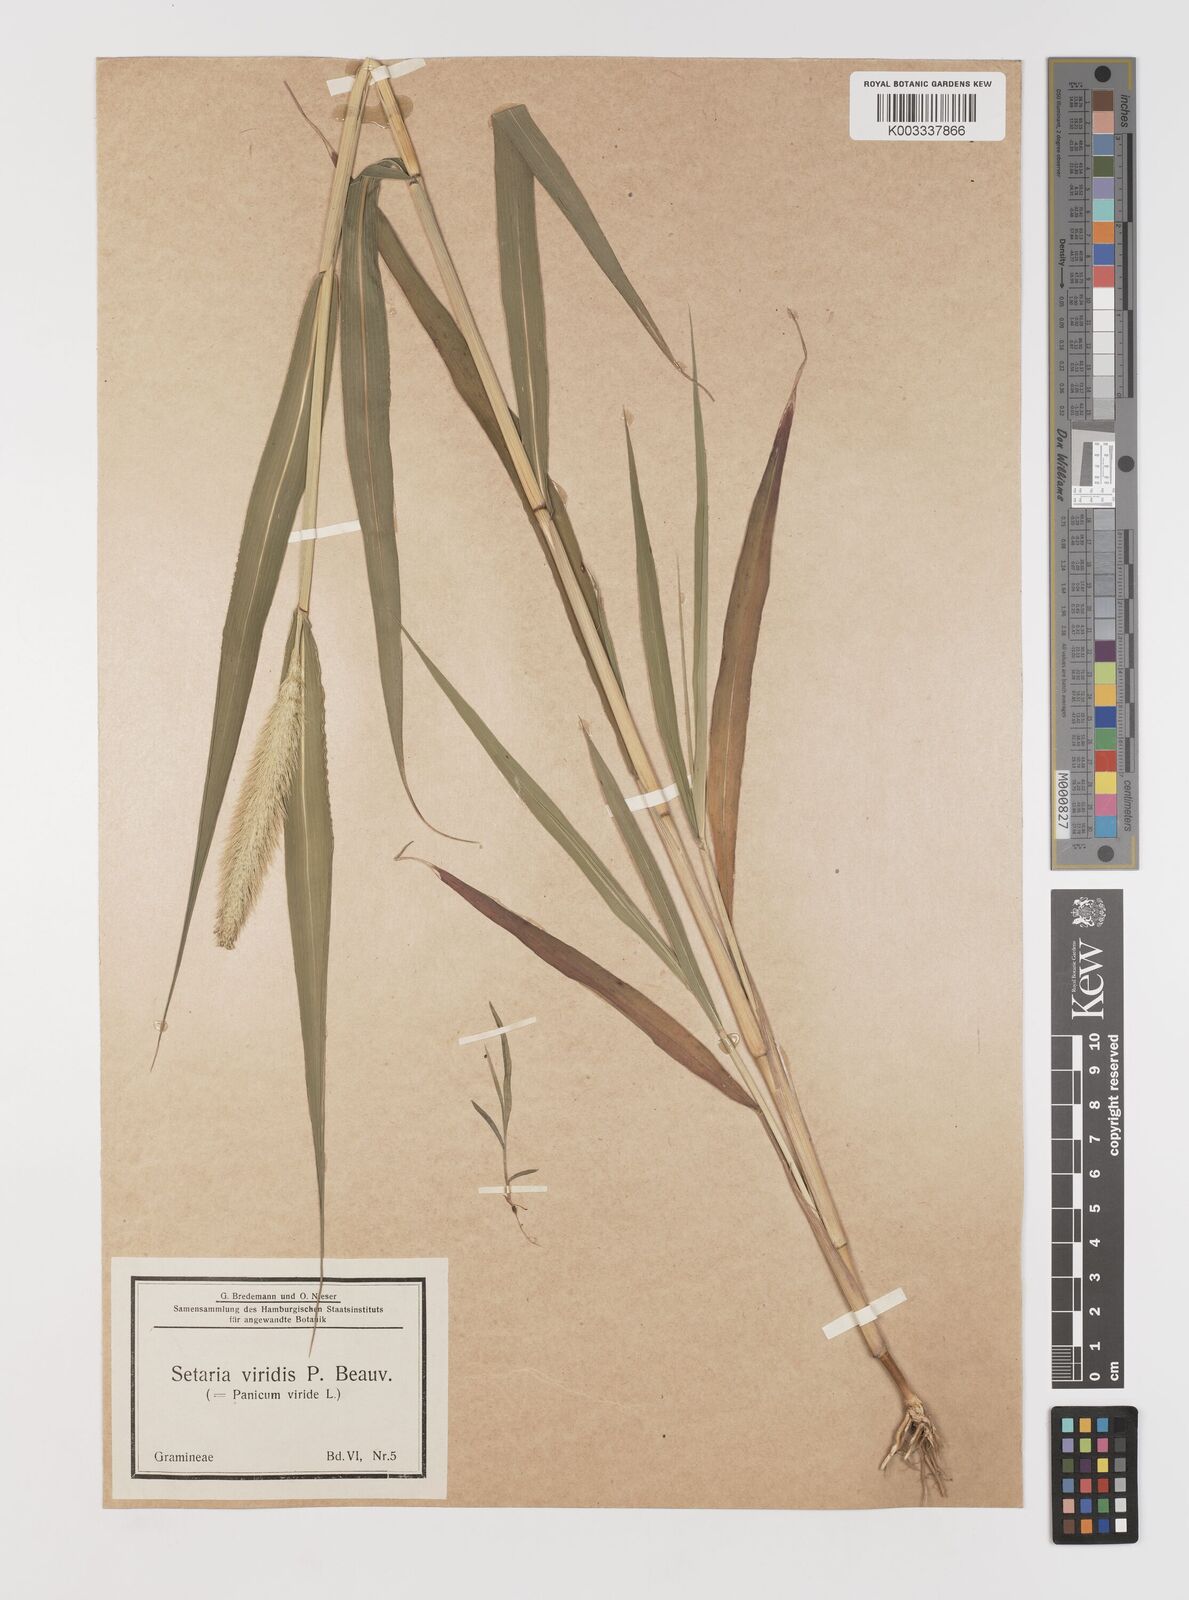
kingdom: Plantae
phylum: Tracheophyta
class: Liliopsida
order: Poales
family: Poaceae
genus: Setaria
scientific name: Setaria viridis
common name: Green bristlegrass
